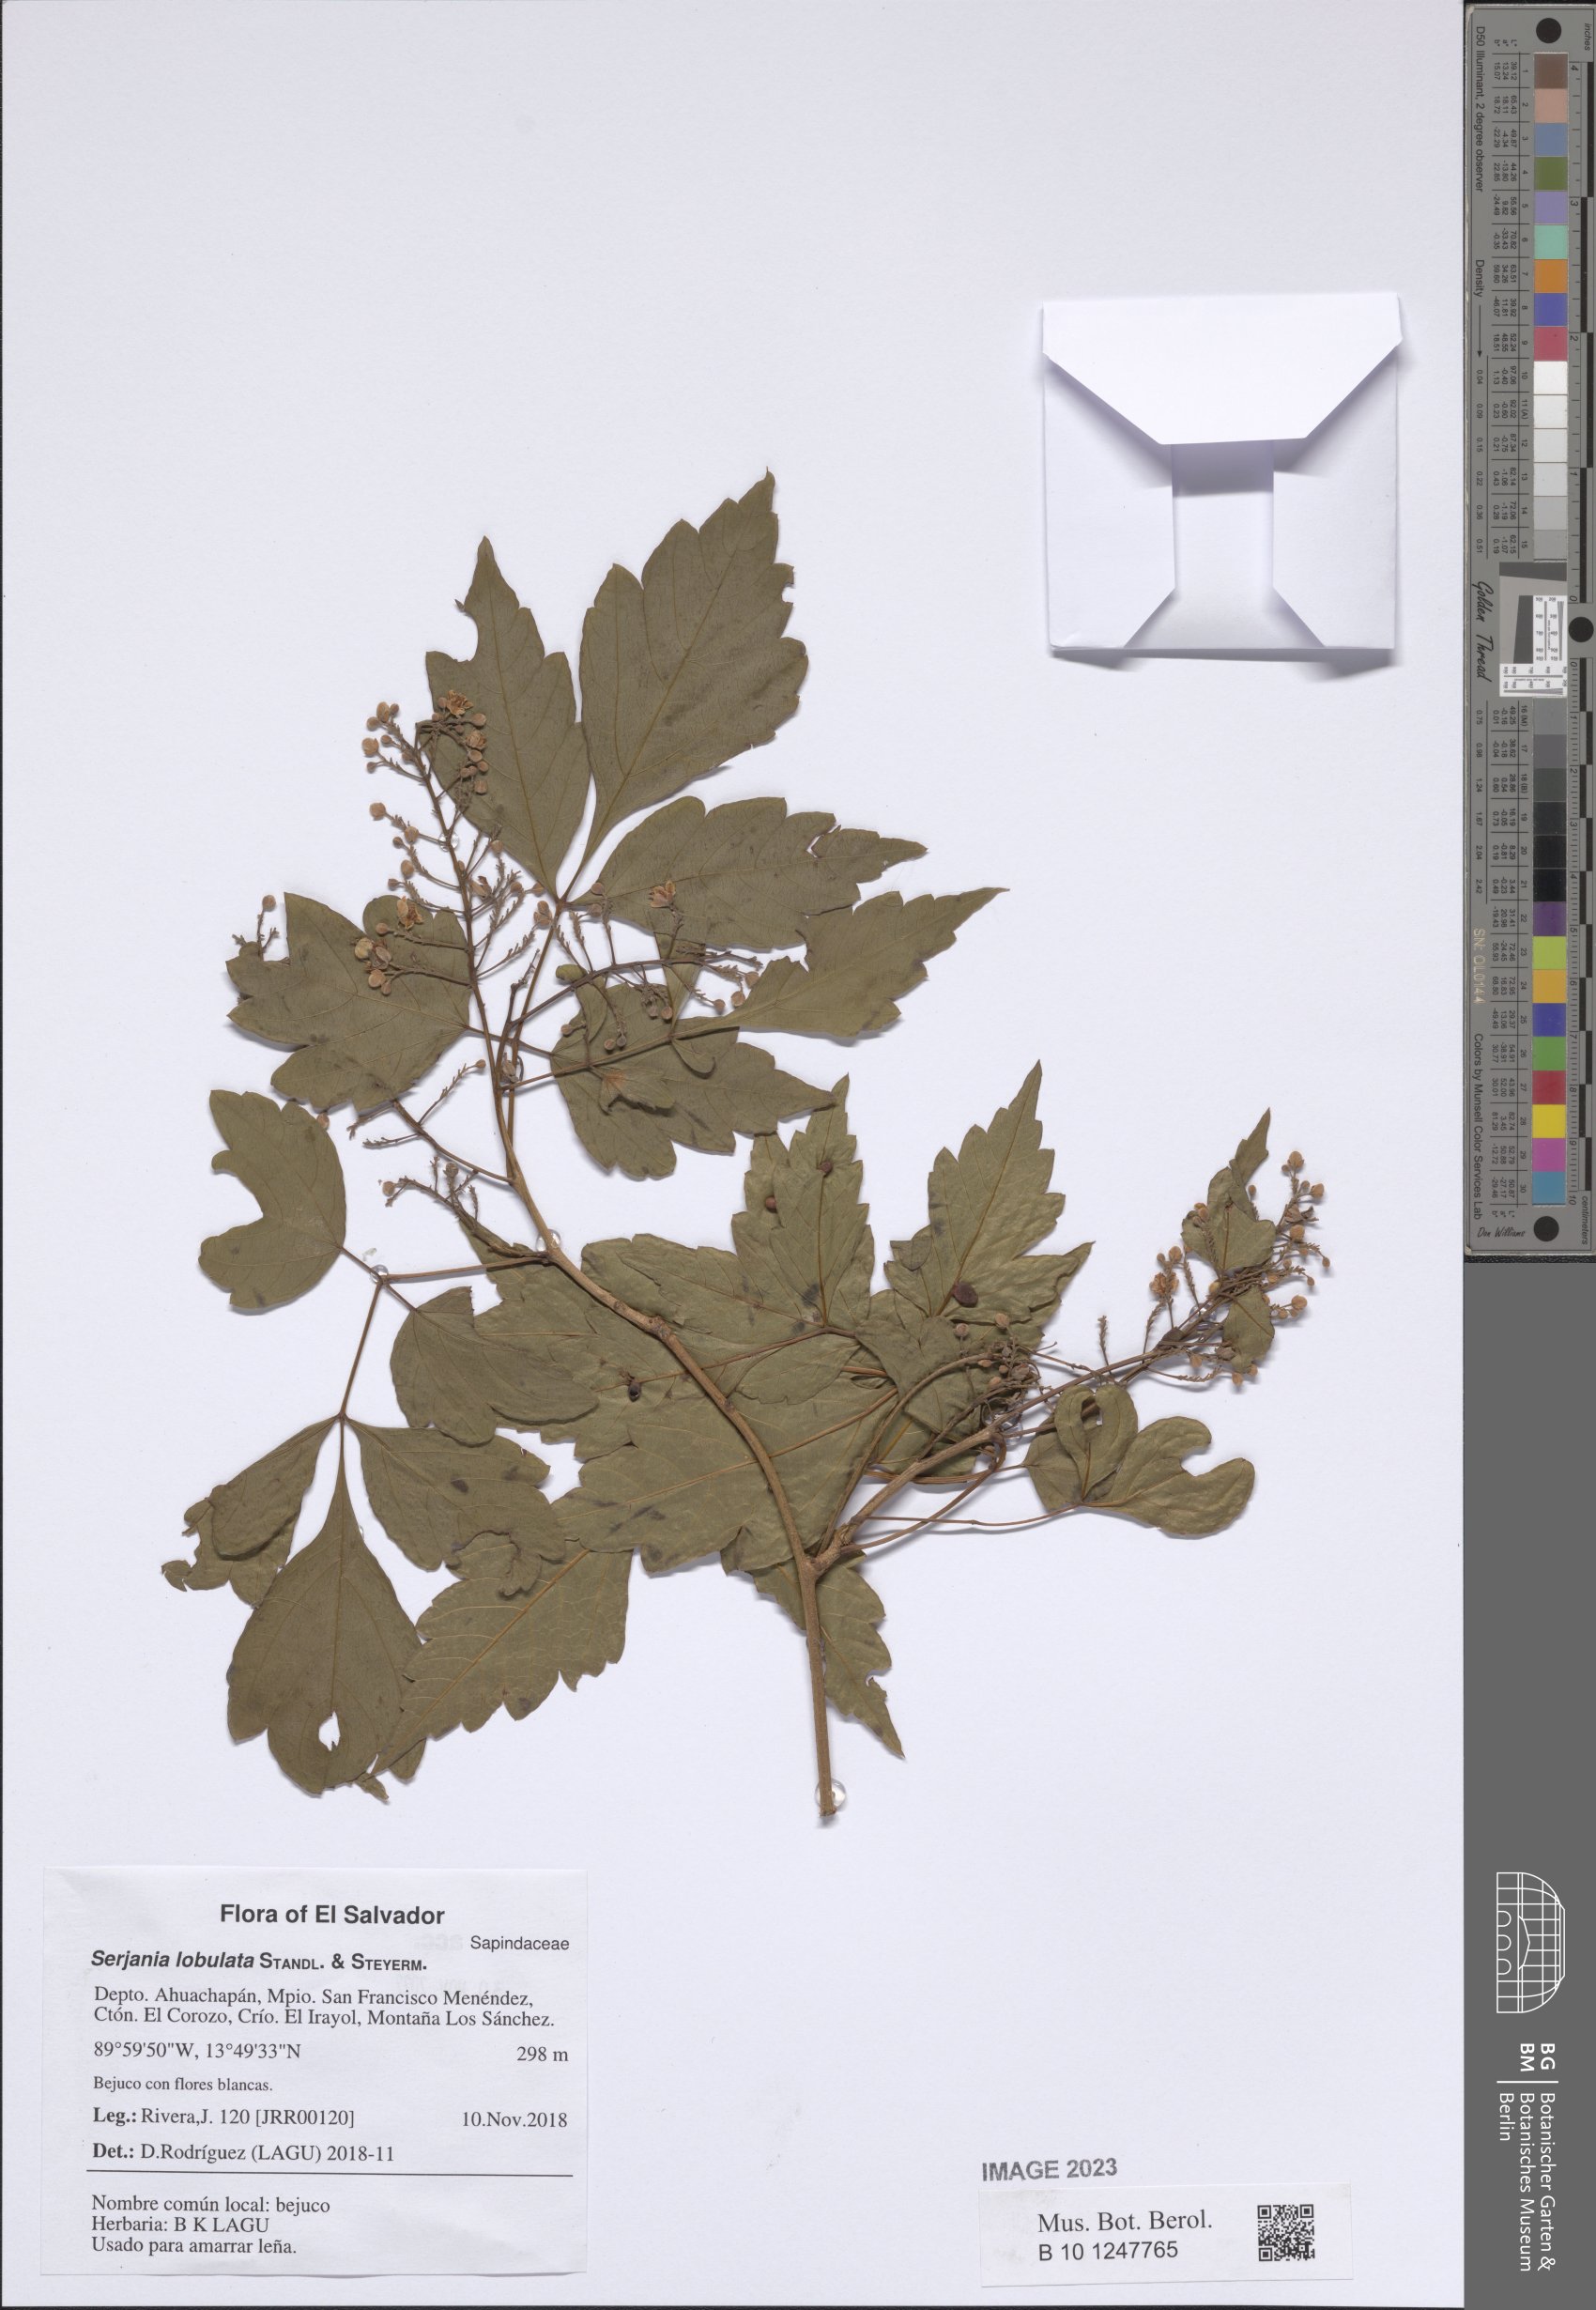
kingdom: Plantae
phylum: Tracheophyta
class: Magnoliopsida
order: Sapindales
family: Sapindaceae
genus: Serjania
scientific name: Serjania lobulata
